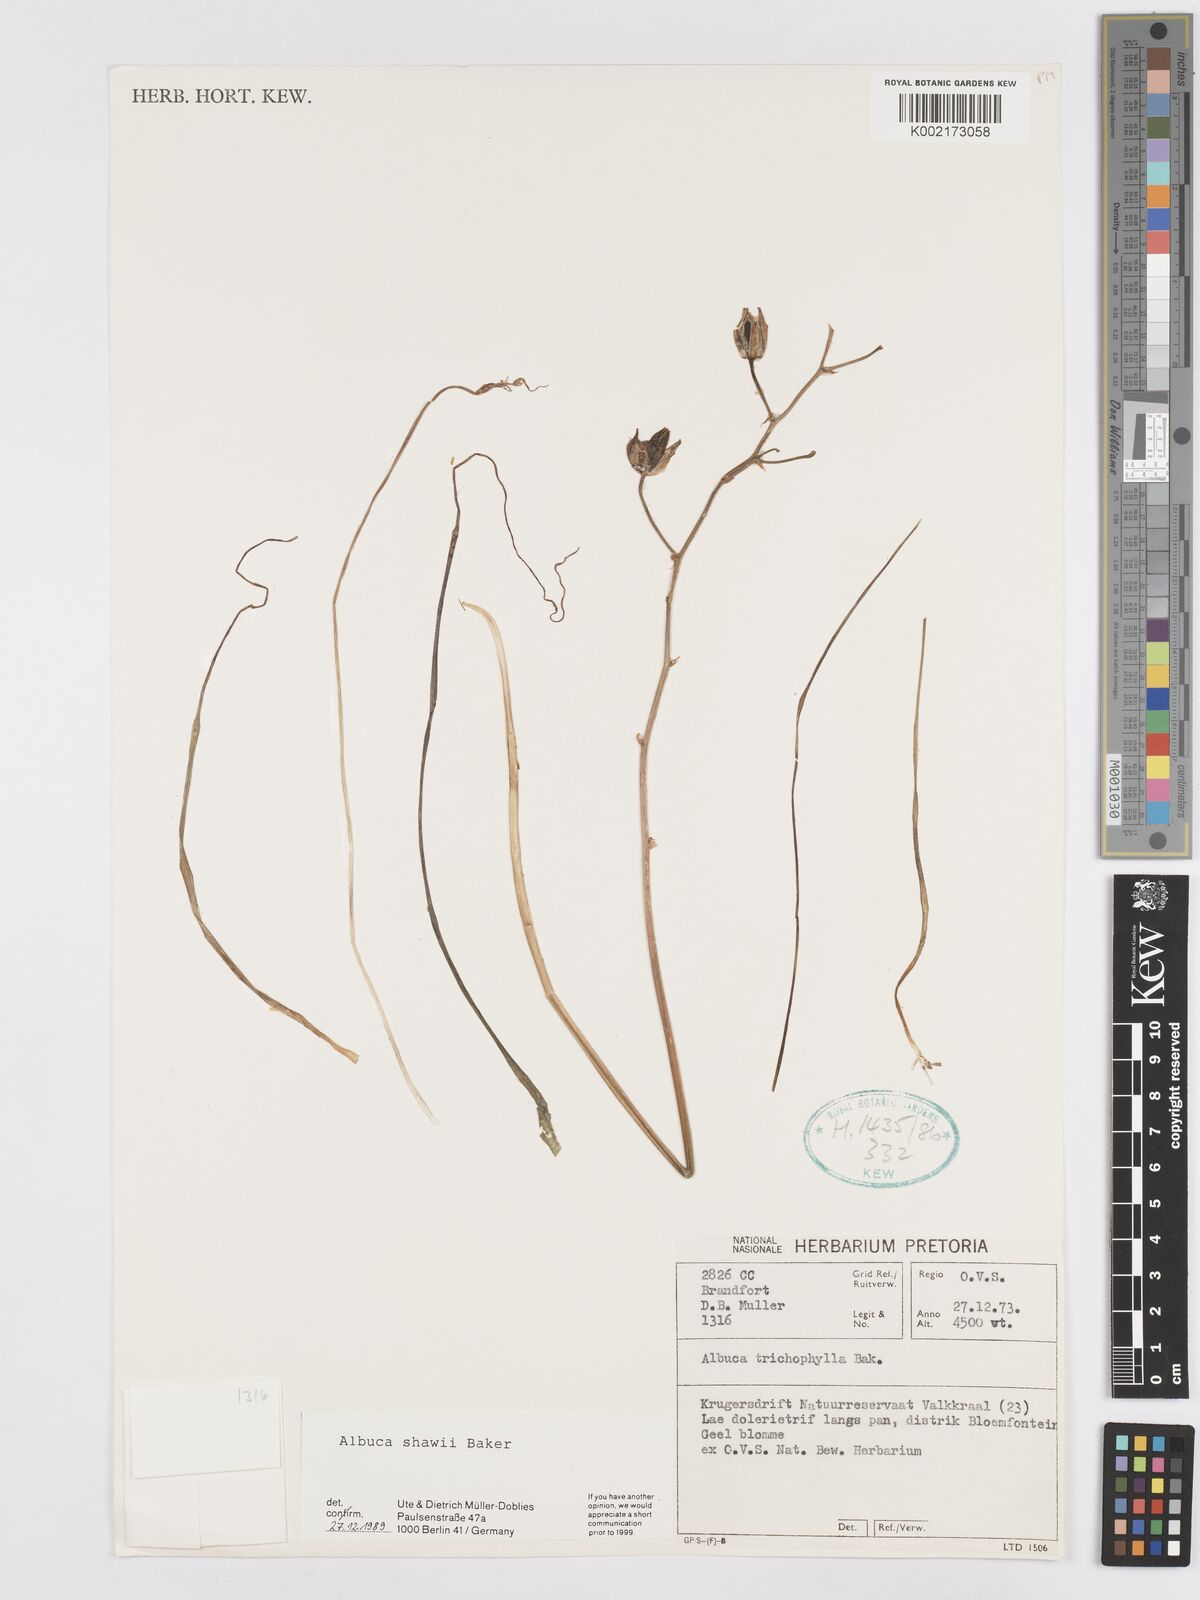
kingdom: Plantae
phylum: Tracheophyta
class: Liliopsida
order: Asparagales
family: Asparagaceae
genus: Albuca
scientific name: Albuca shawii
